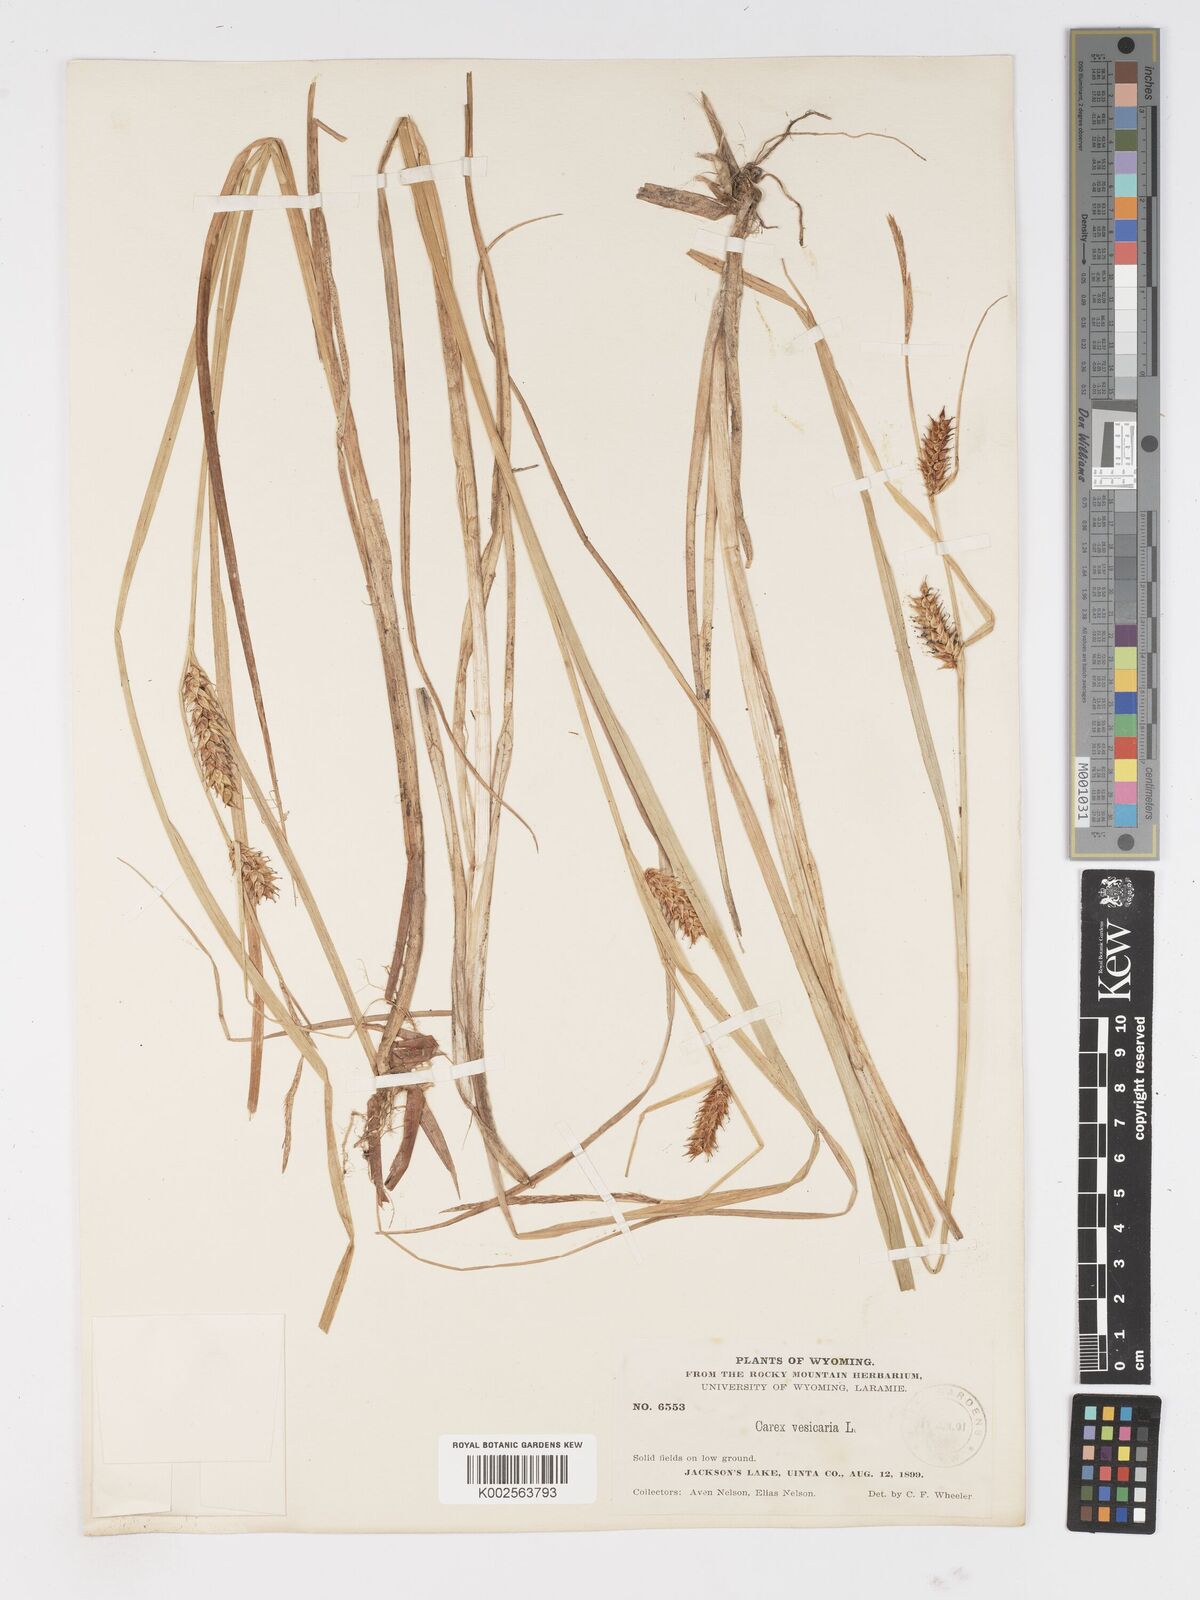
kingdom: Plantae
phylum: Tracheophyta
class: Liliopsida
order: Poales
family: Cyperaceae
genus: Carex
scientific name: Carex vesicaria
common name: Bladder-sedge
